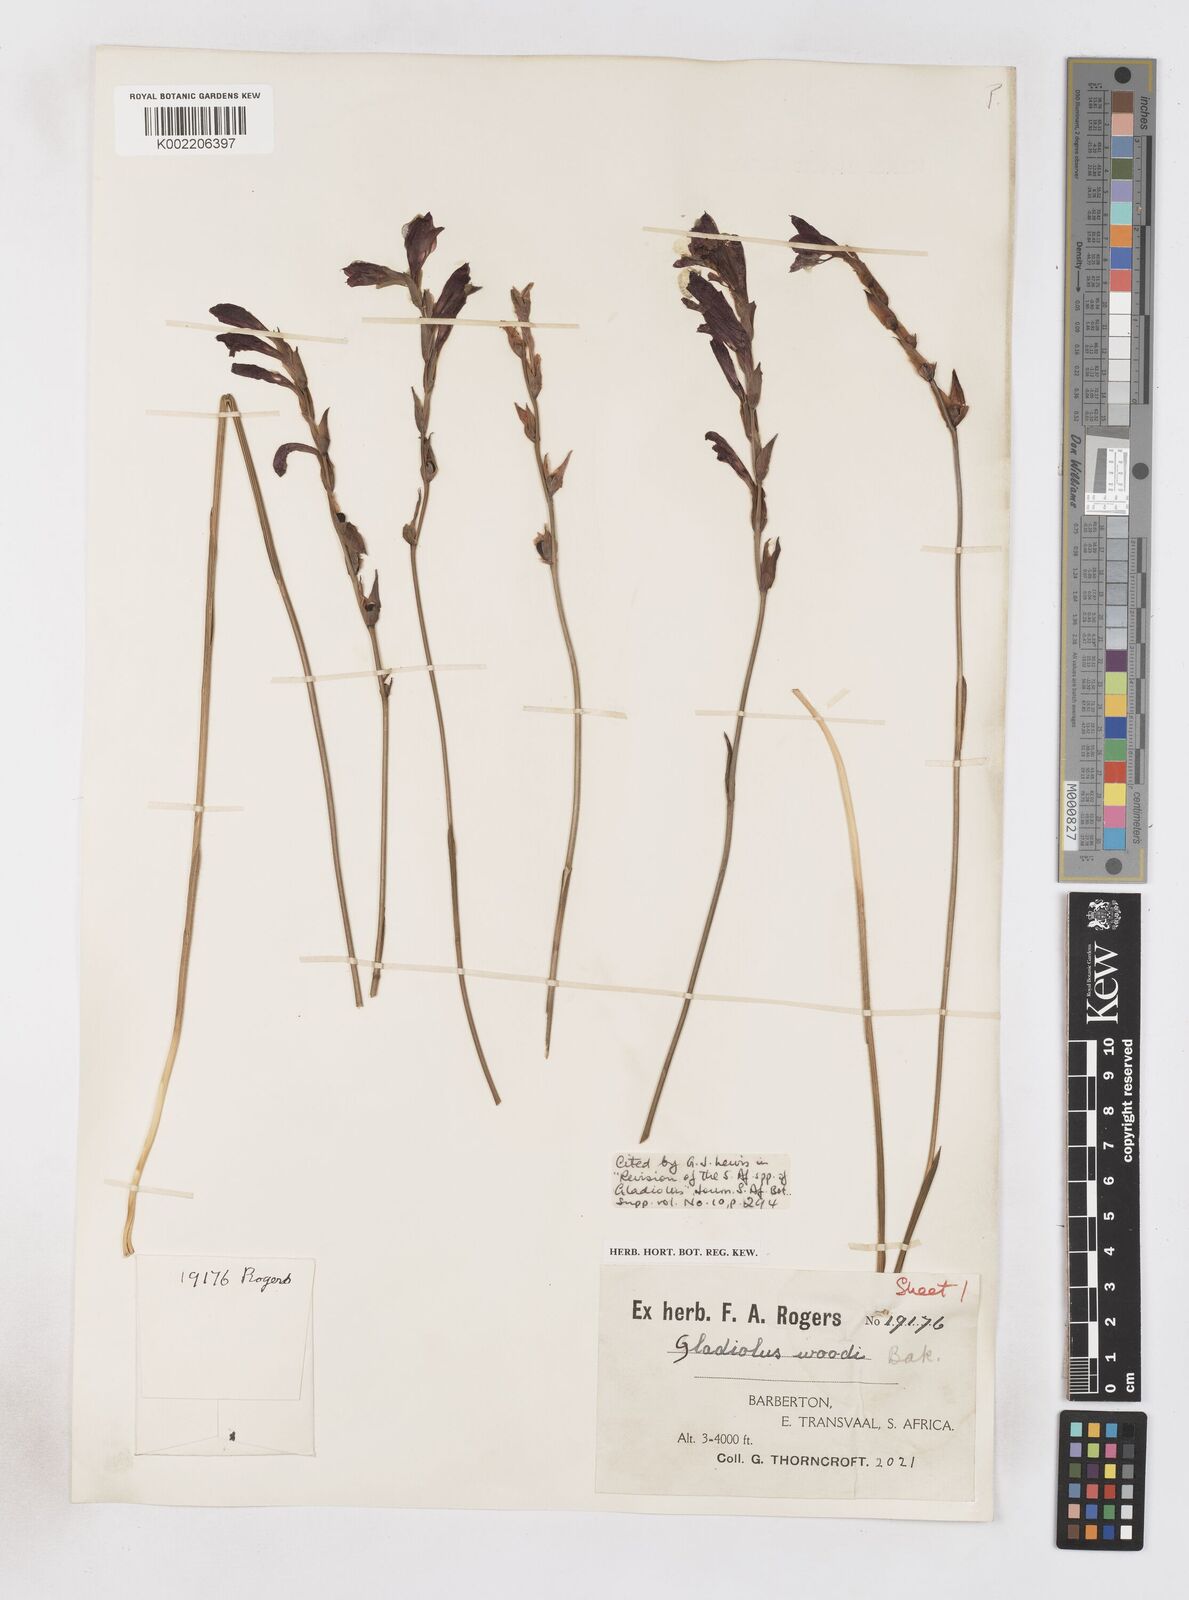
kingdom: Plantae
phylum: Tracheophyta
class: Liliopsida
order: Asparagales
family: Iridaceae
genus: Gladiolus
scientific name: Gladiolus woodii
